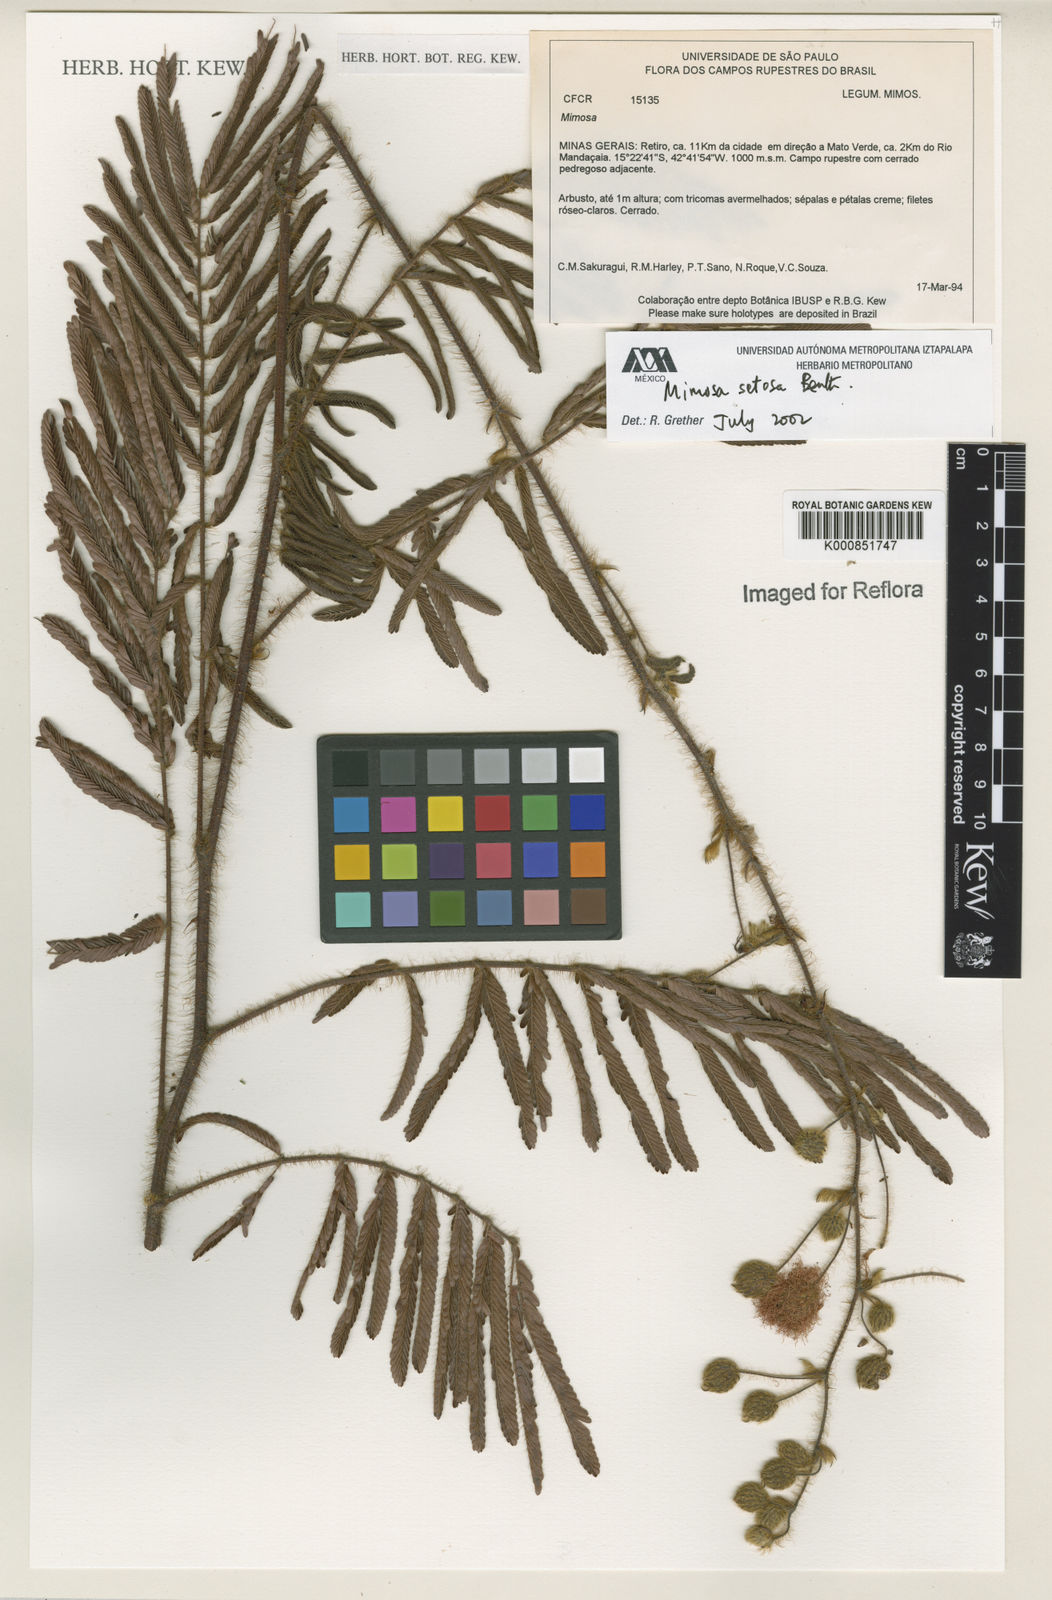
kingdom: Plantae
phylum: Tracheophyta
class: Magnoliopsida
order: Fabales
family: Fabaceae
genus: Mimosa
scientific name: Mimosa setosa
